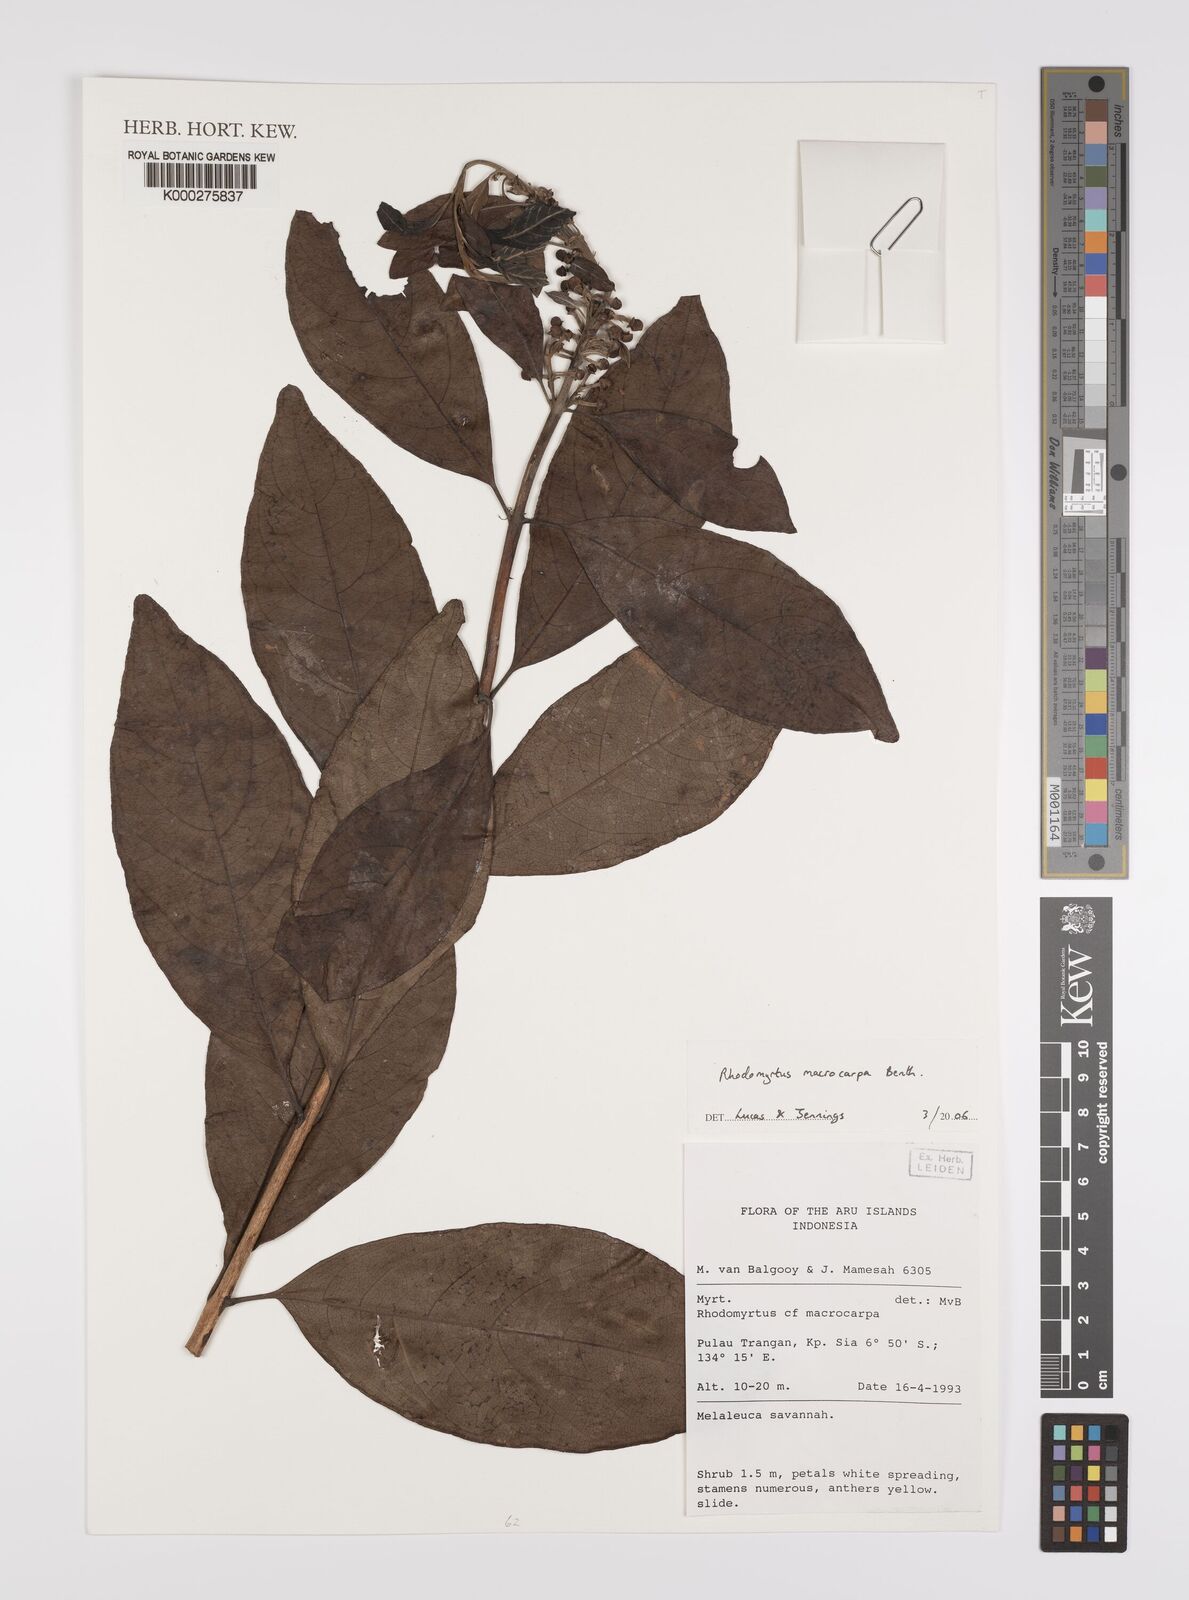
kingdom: Plantae
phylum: Tracheophyta
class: Magnoliopsida
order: Myrtales
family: Myrtaceae
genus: Rhodomyrtus
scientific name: Rhodomyrtus macrocarpa
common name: Finger-cherry
